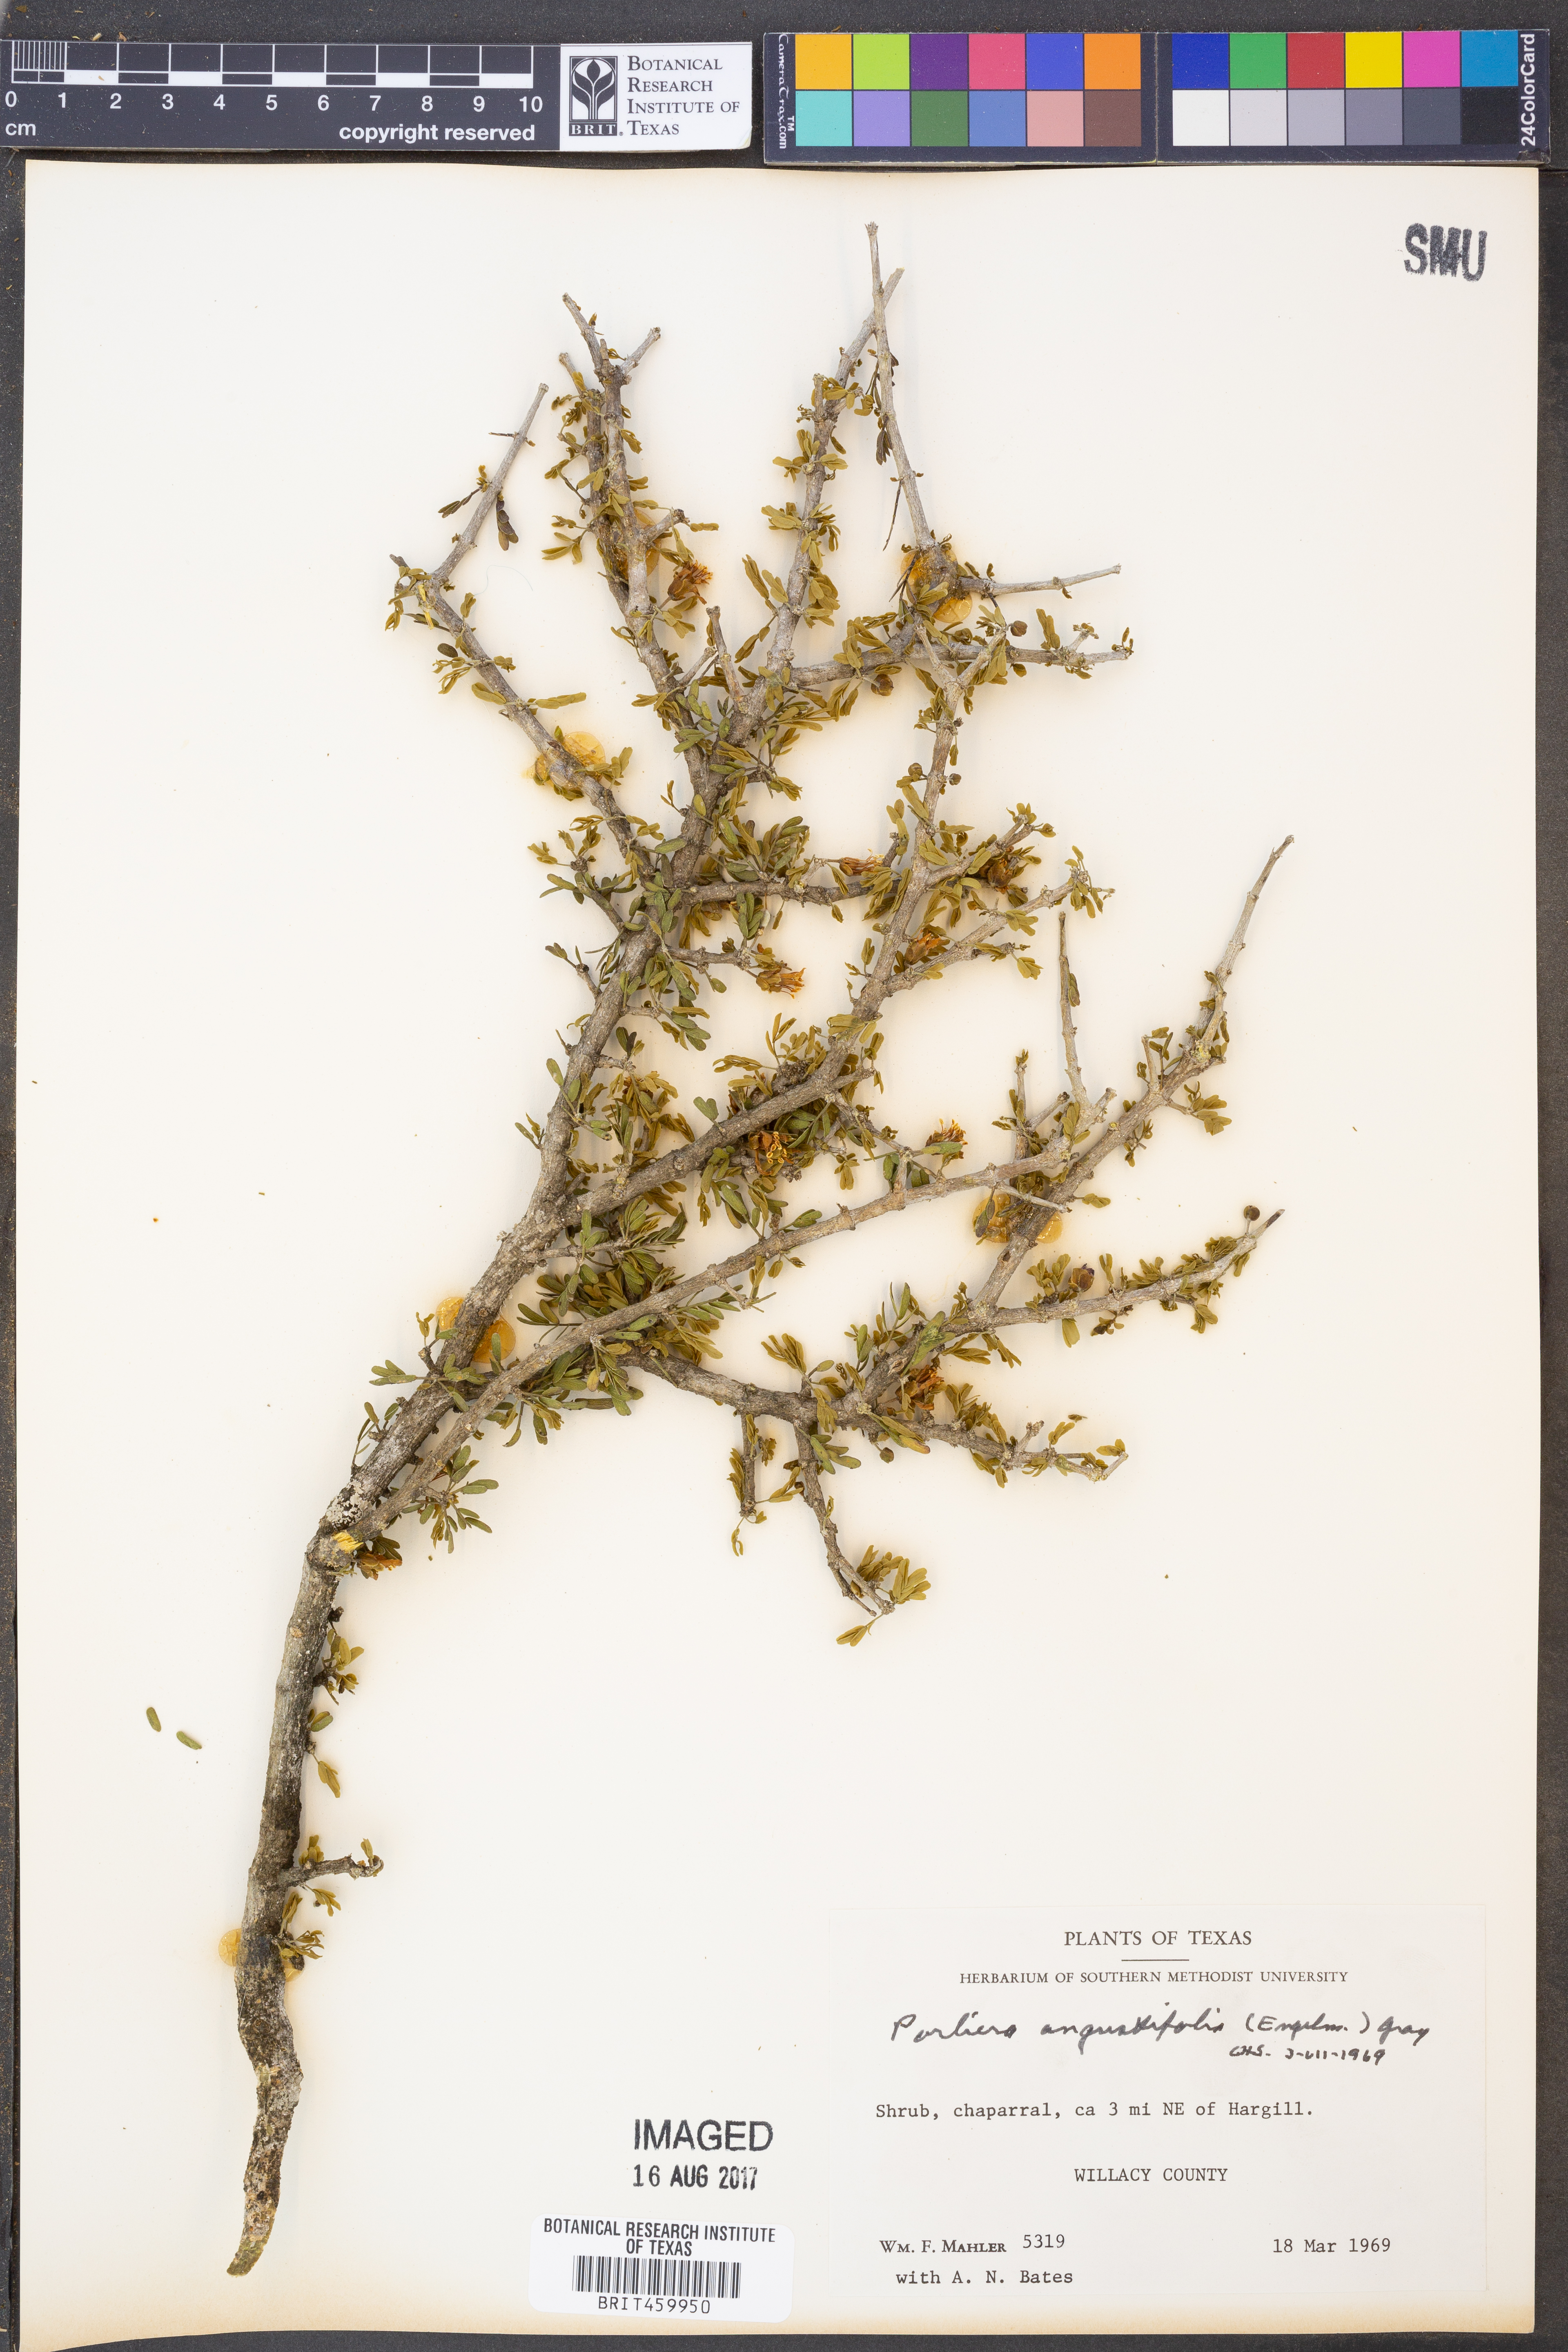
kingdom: Plantae
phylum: Tracheophyta
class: Magnoliopsida
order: Zygophyllales
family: Zygophyllaceae
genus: Porlieria
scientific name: Porlieria angustifolia
